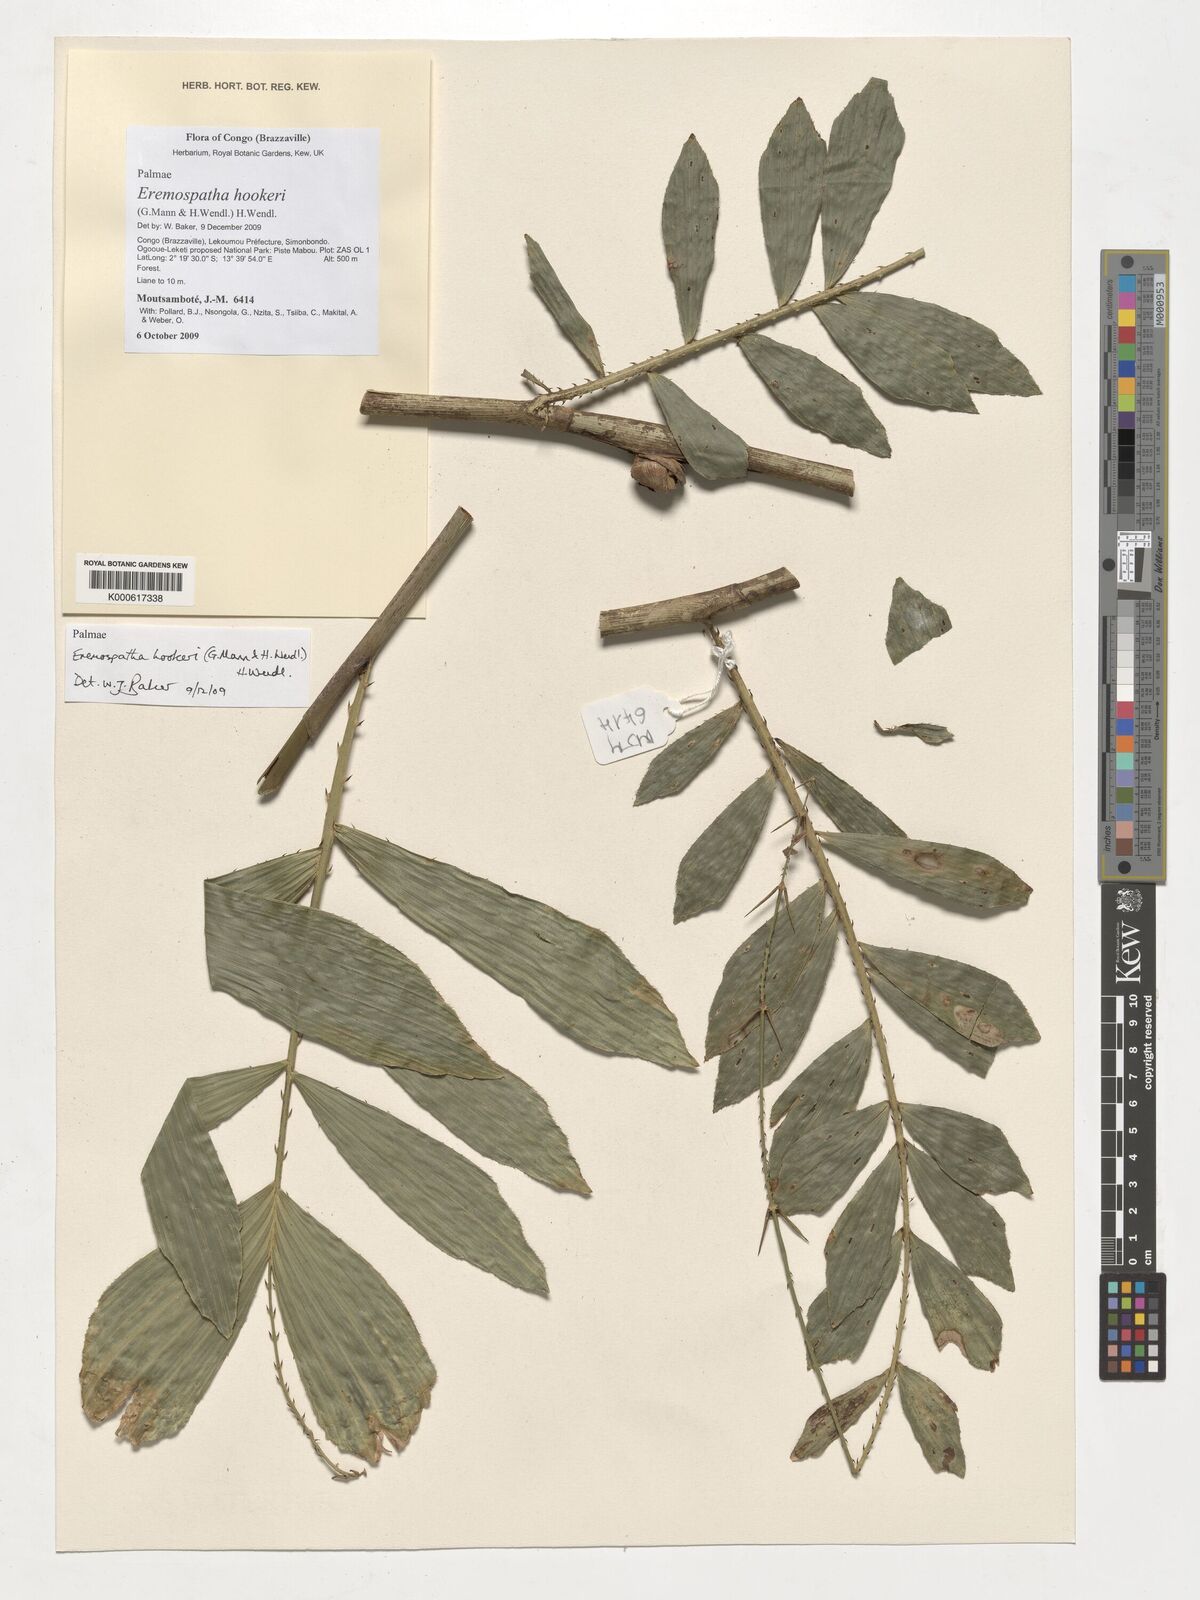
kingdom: Plantae
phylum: Tracheophyta
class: Liliopsida
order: Arecales
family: Arecaceae
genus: Eremospatha
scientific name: Eremospatha hookeri
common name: Rattan
